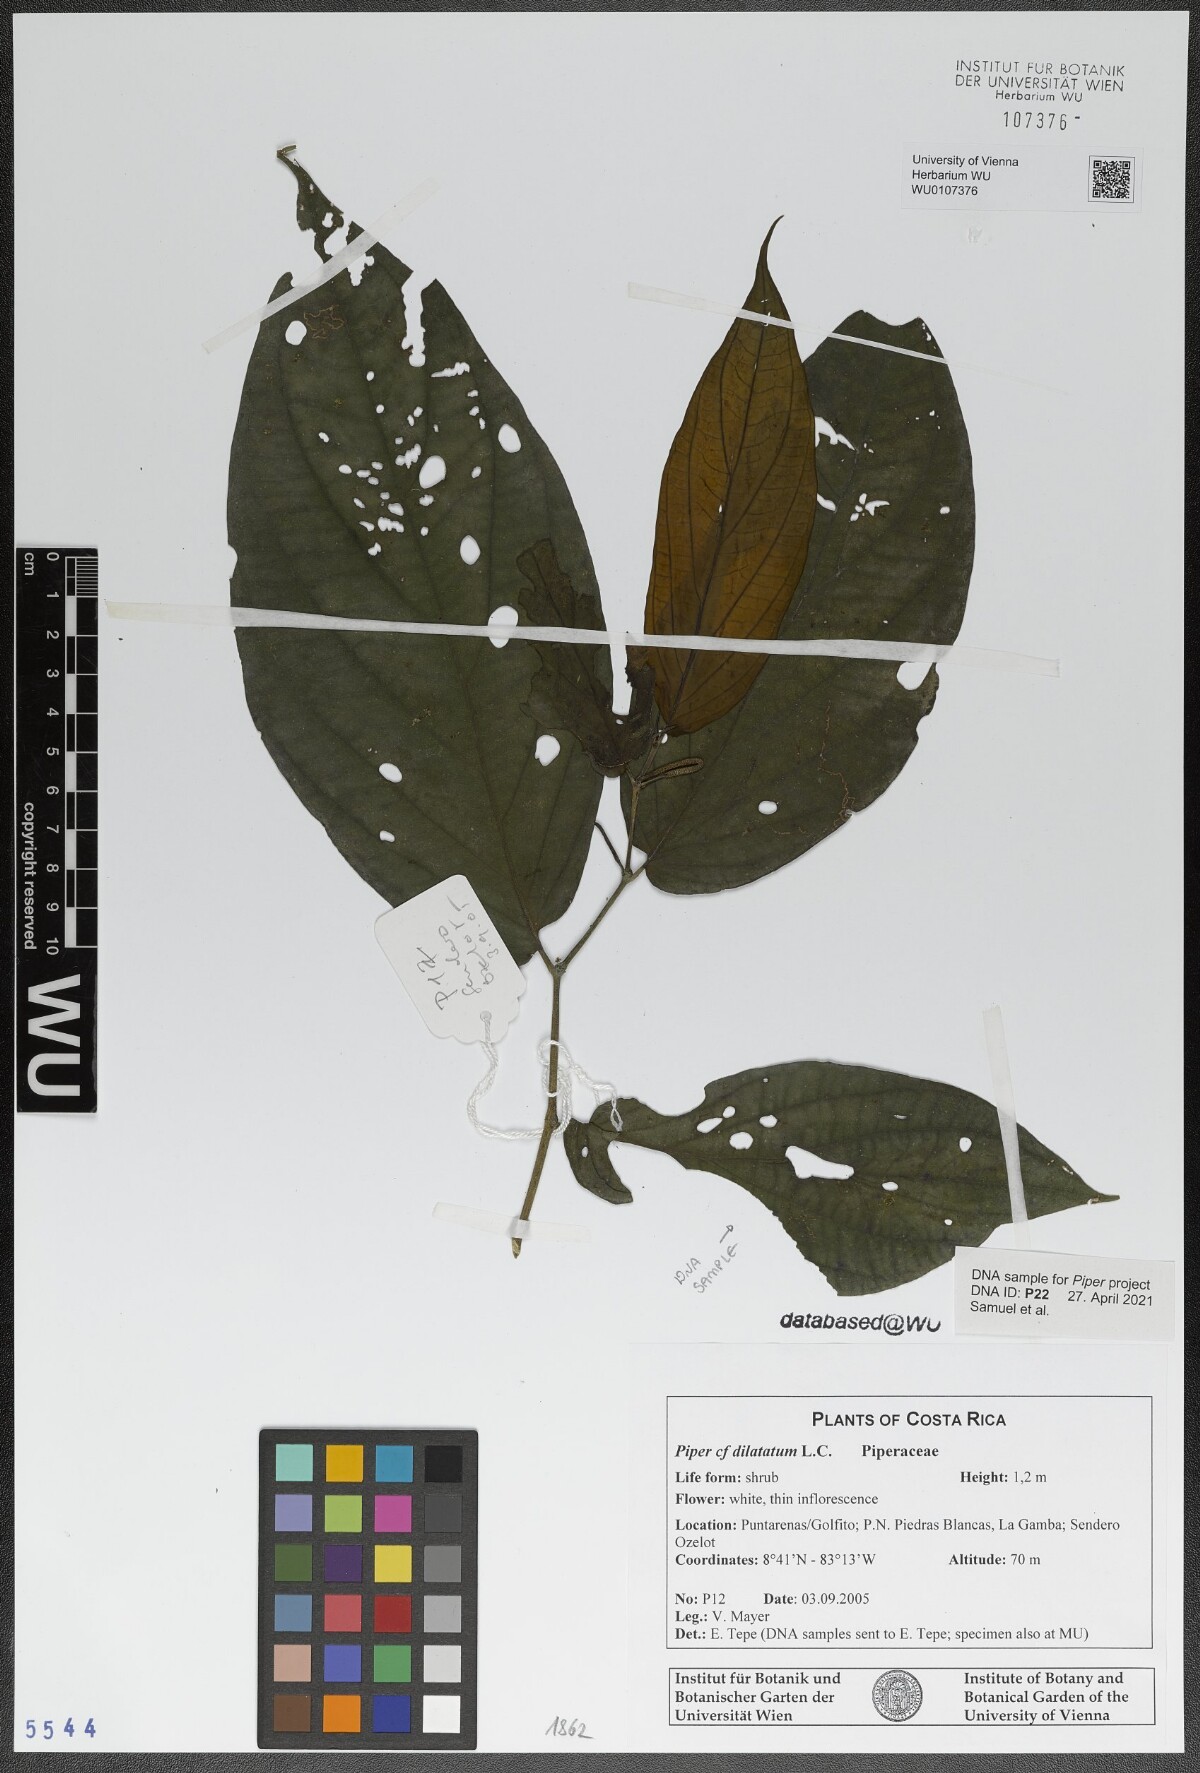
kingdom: Plantae
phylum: Tracheophyta
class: Magnoliopsida
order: Piperales
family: Piperaceae
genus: Piper
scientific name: Piper dilatatum
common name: Higuillo
